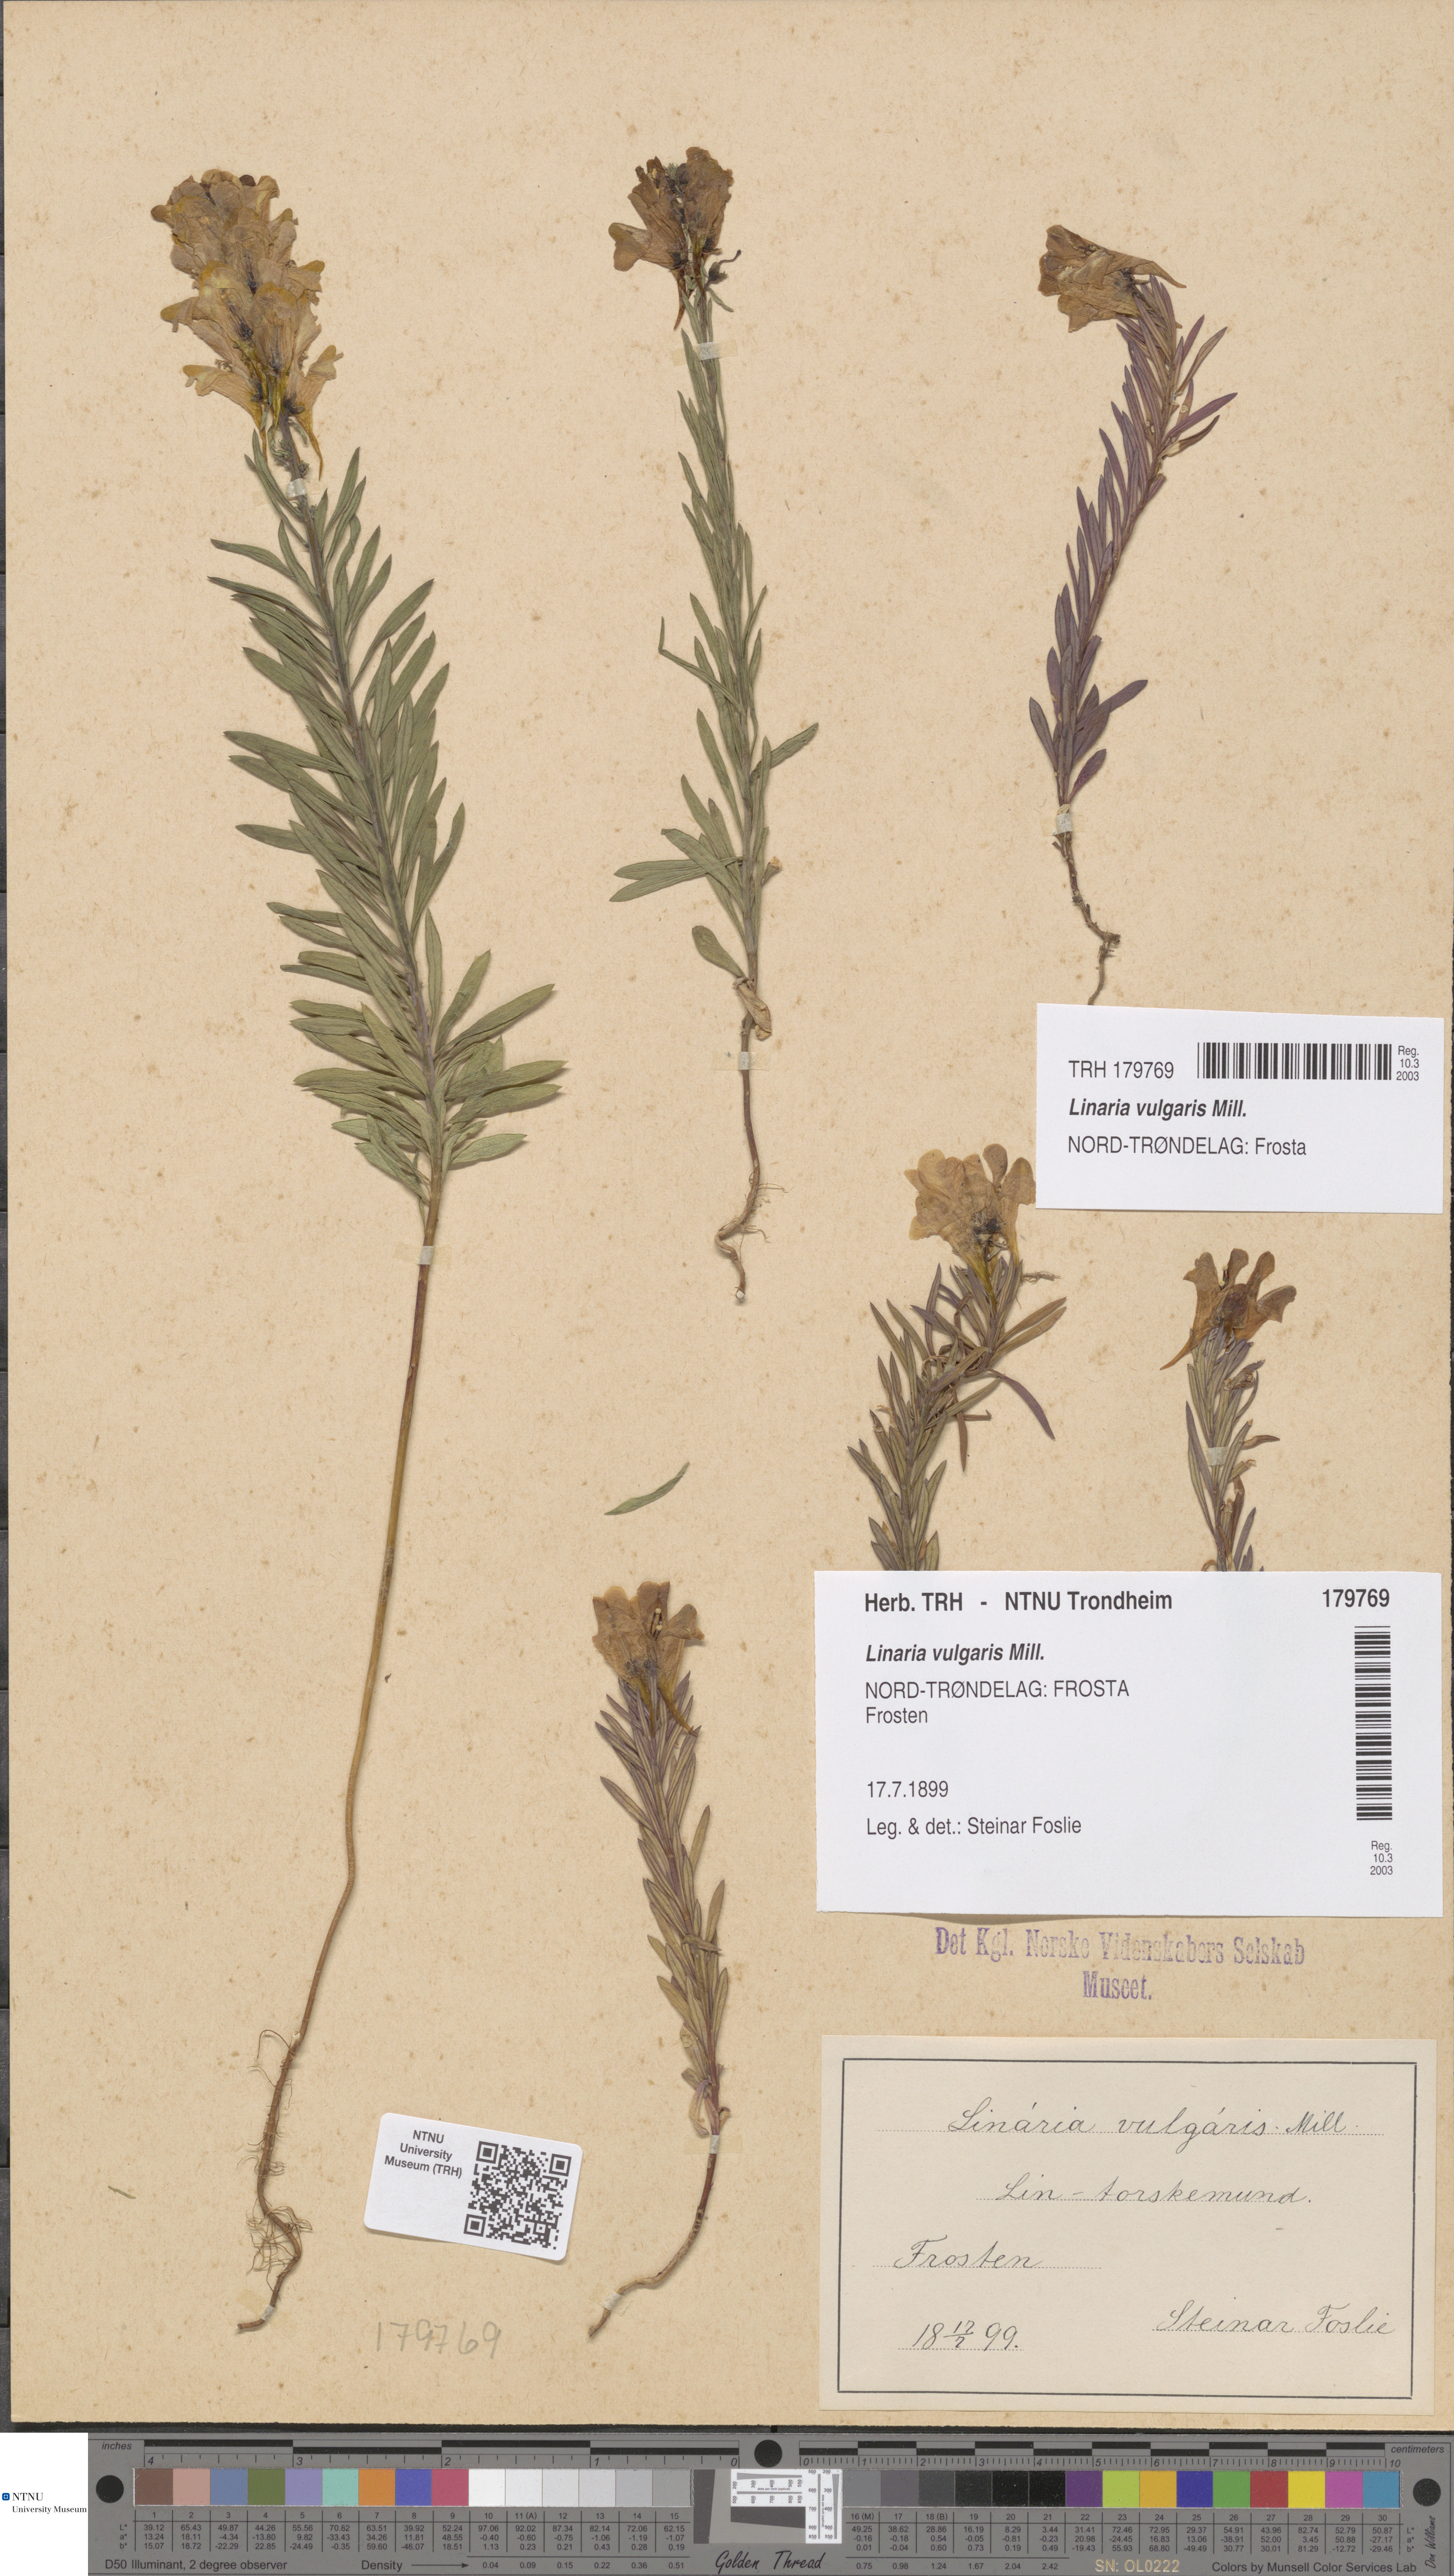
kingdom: Plantae
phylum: Tracheophyta
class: Magnoliopsida
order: Lamiales
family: Plantaginaceae
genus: Linaria
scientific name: Linaria vulgaris
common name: Butter and eggs
